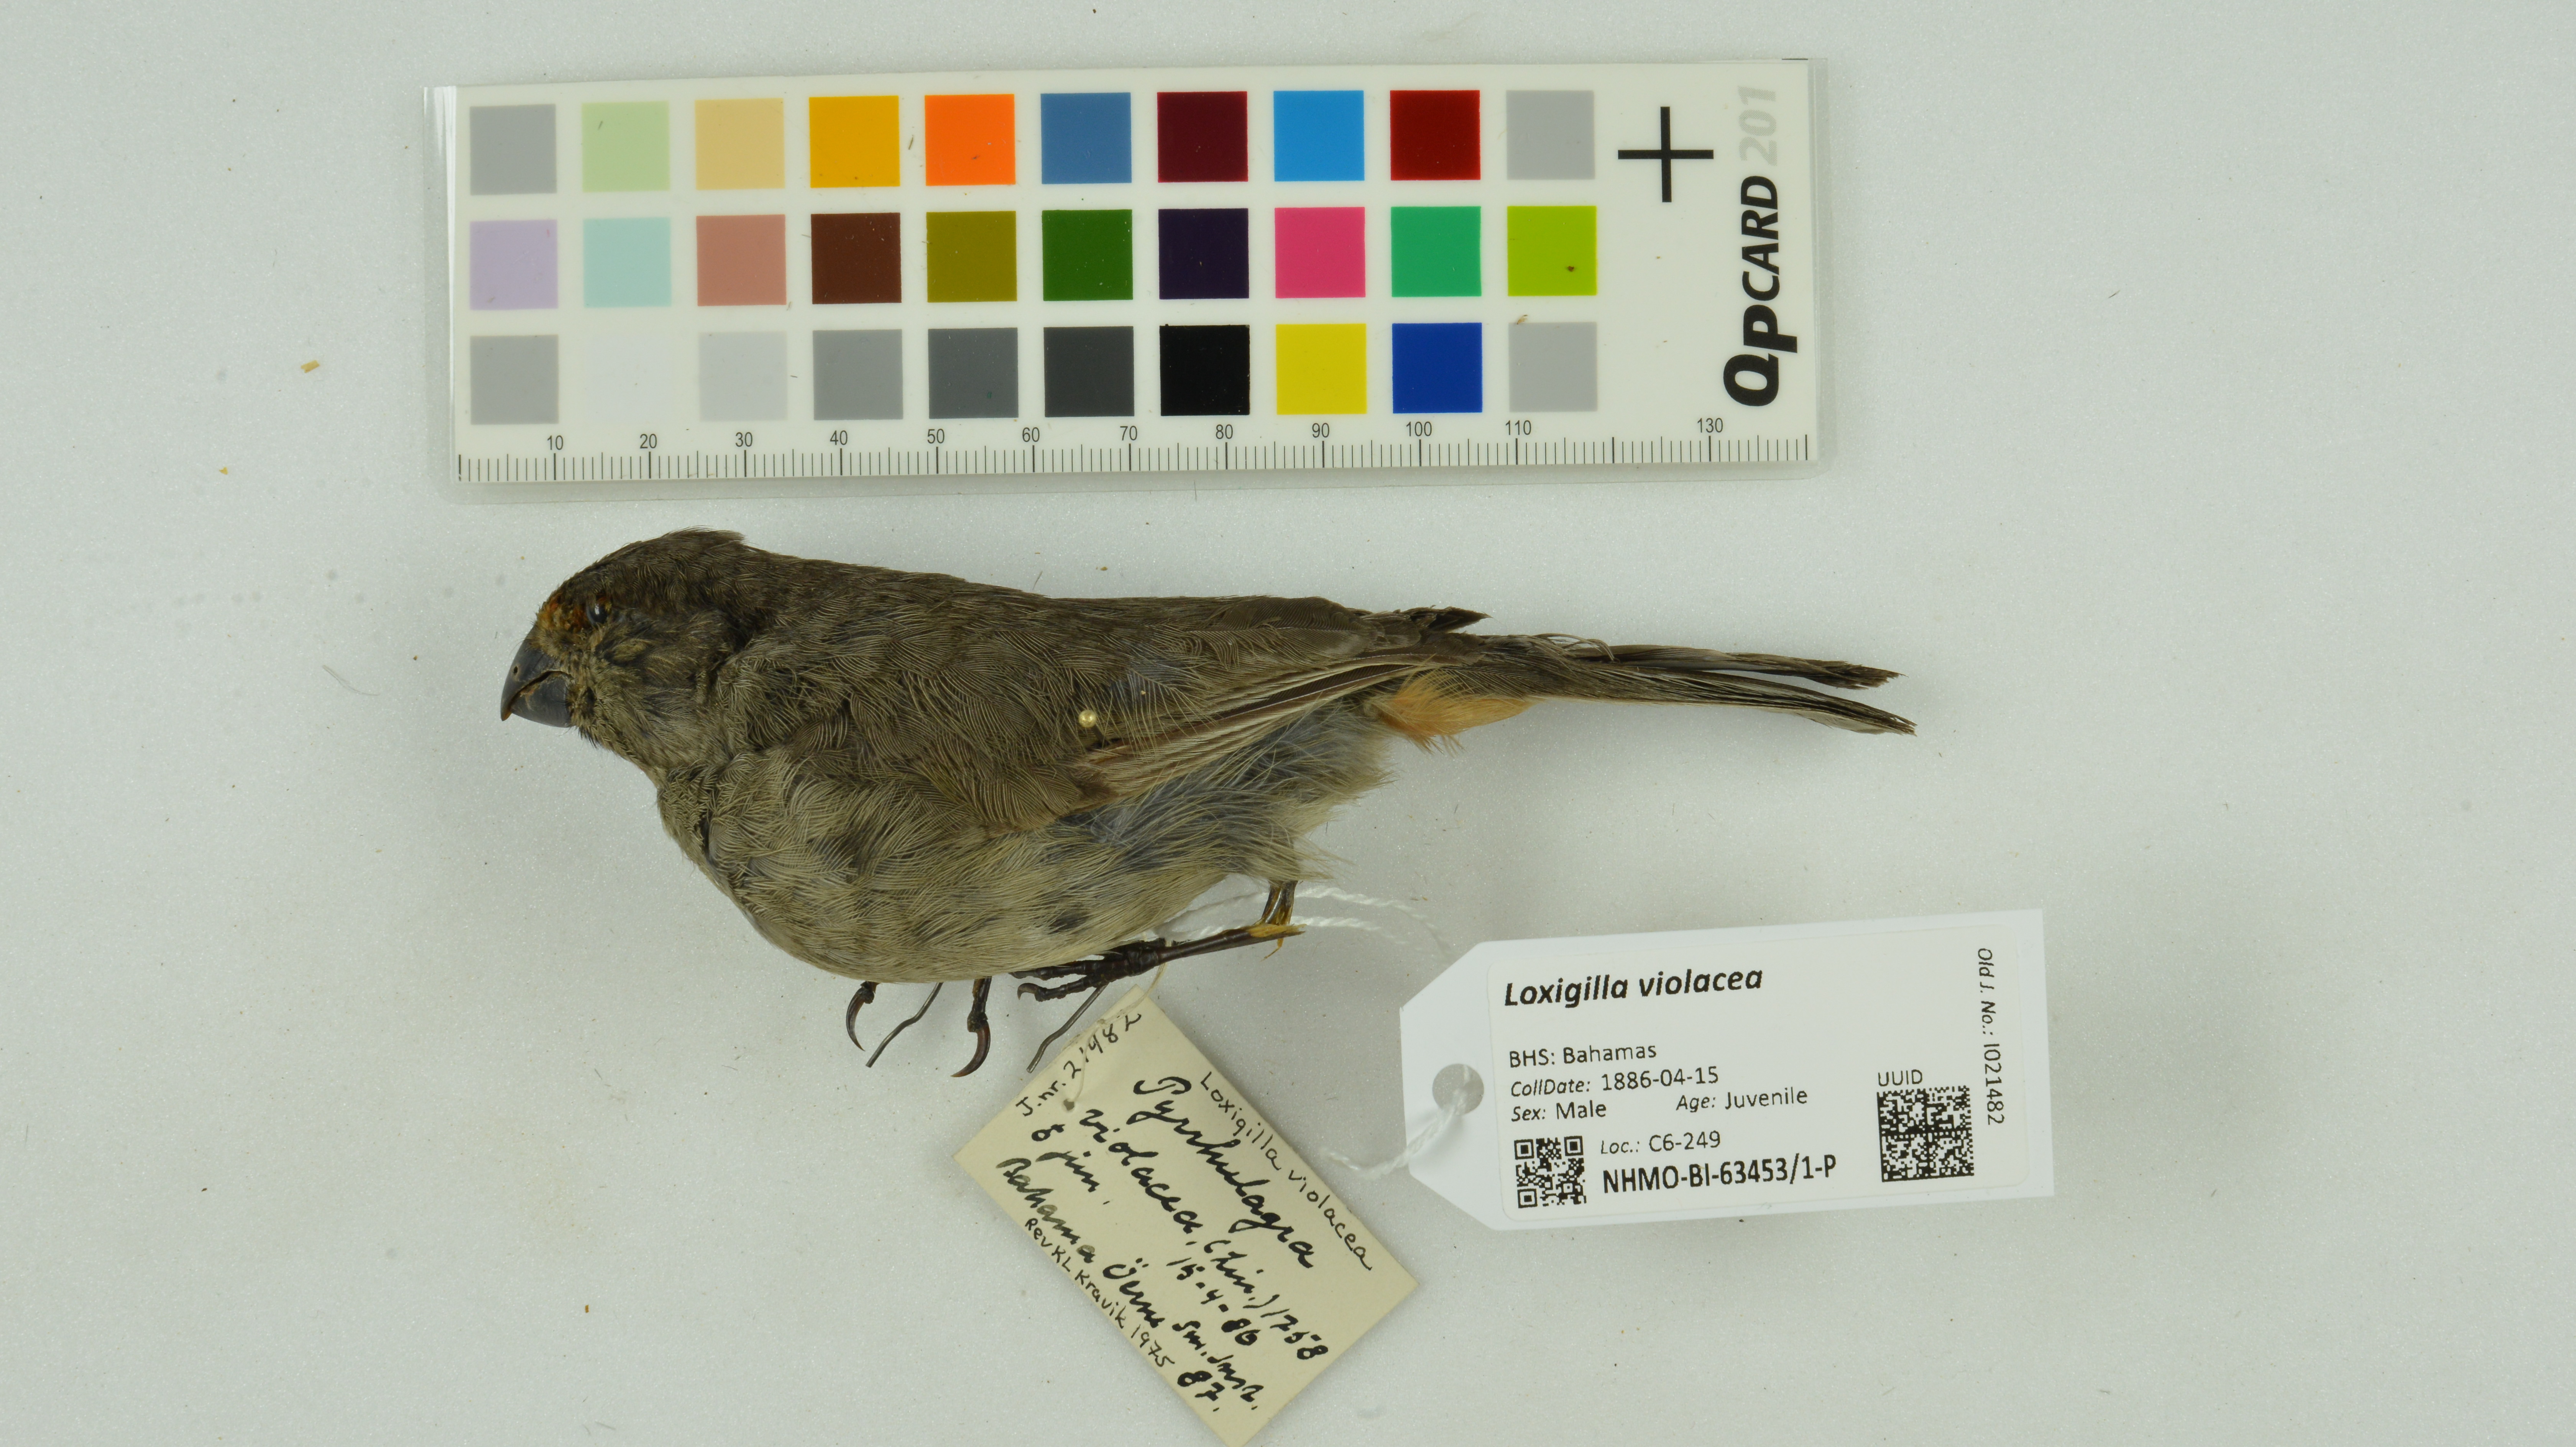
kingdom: Animalia
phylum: Chordata
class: Aves
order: Passeriformes
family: Thraupidae
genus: Melopyrrha
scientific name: Melopyrrha violacea
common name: Greater antillean bullfinch
